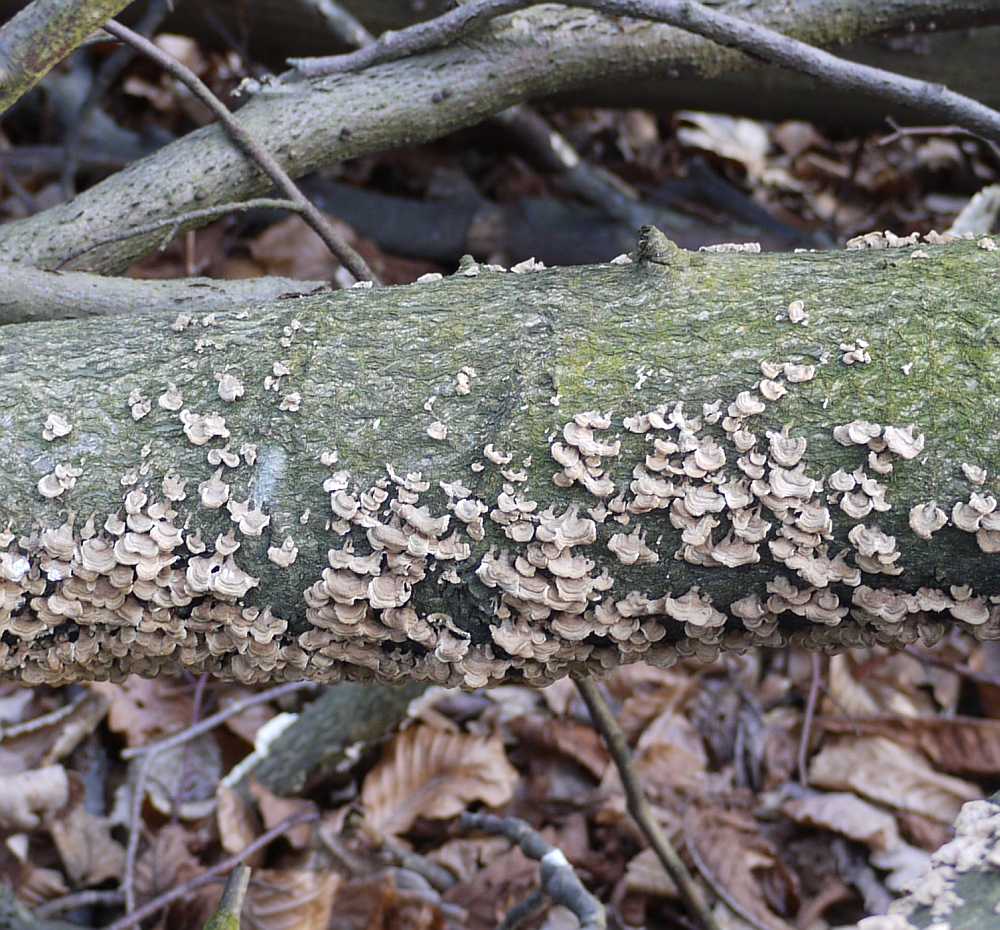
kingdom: Fungi
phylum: Basidiomycota
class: Agaricomycetes
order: Amylocorticiales
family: Amylocorticiaceae
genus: Plicaturopsis
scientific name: Plicaturopsis crispa
